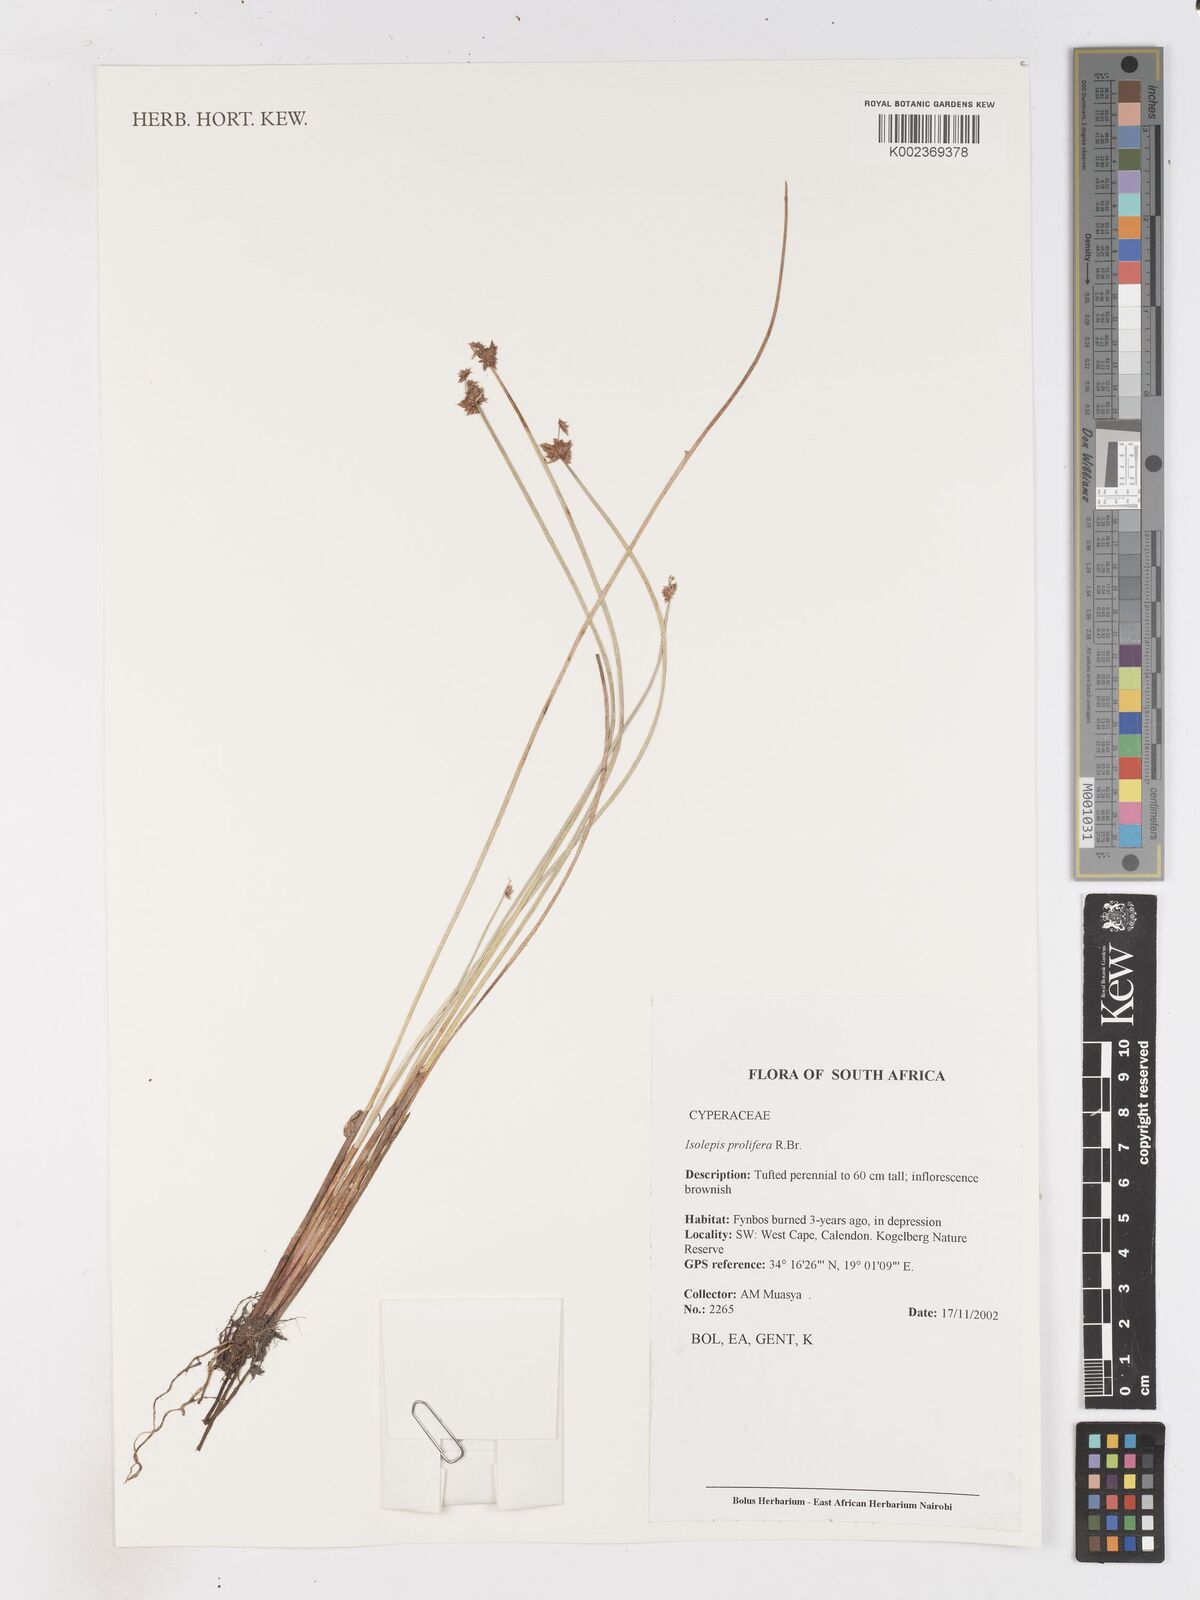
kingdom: Plantae
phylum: Tracheophyta
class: Liliopsida
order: Poales
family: Cyperaceae
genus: Isolepis
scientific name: Isolepis prolifera
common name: Proliferating bulrush
